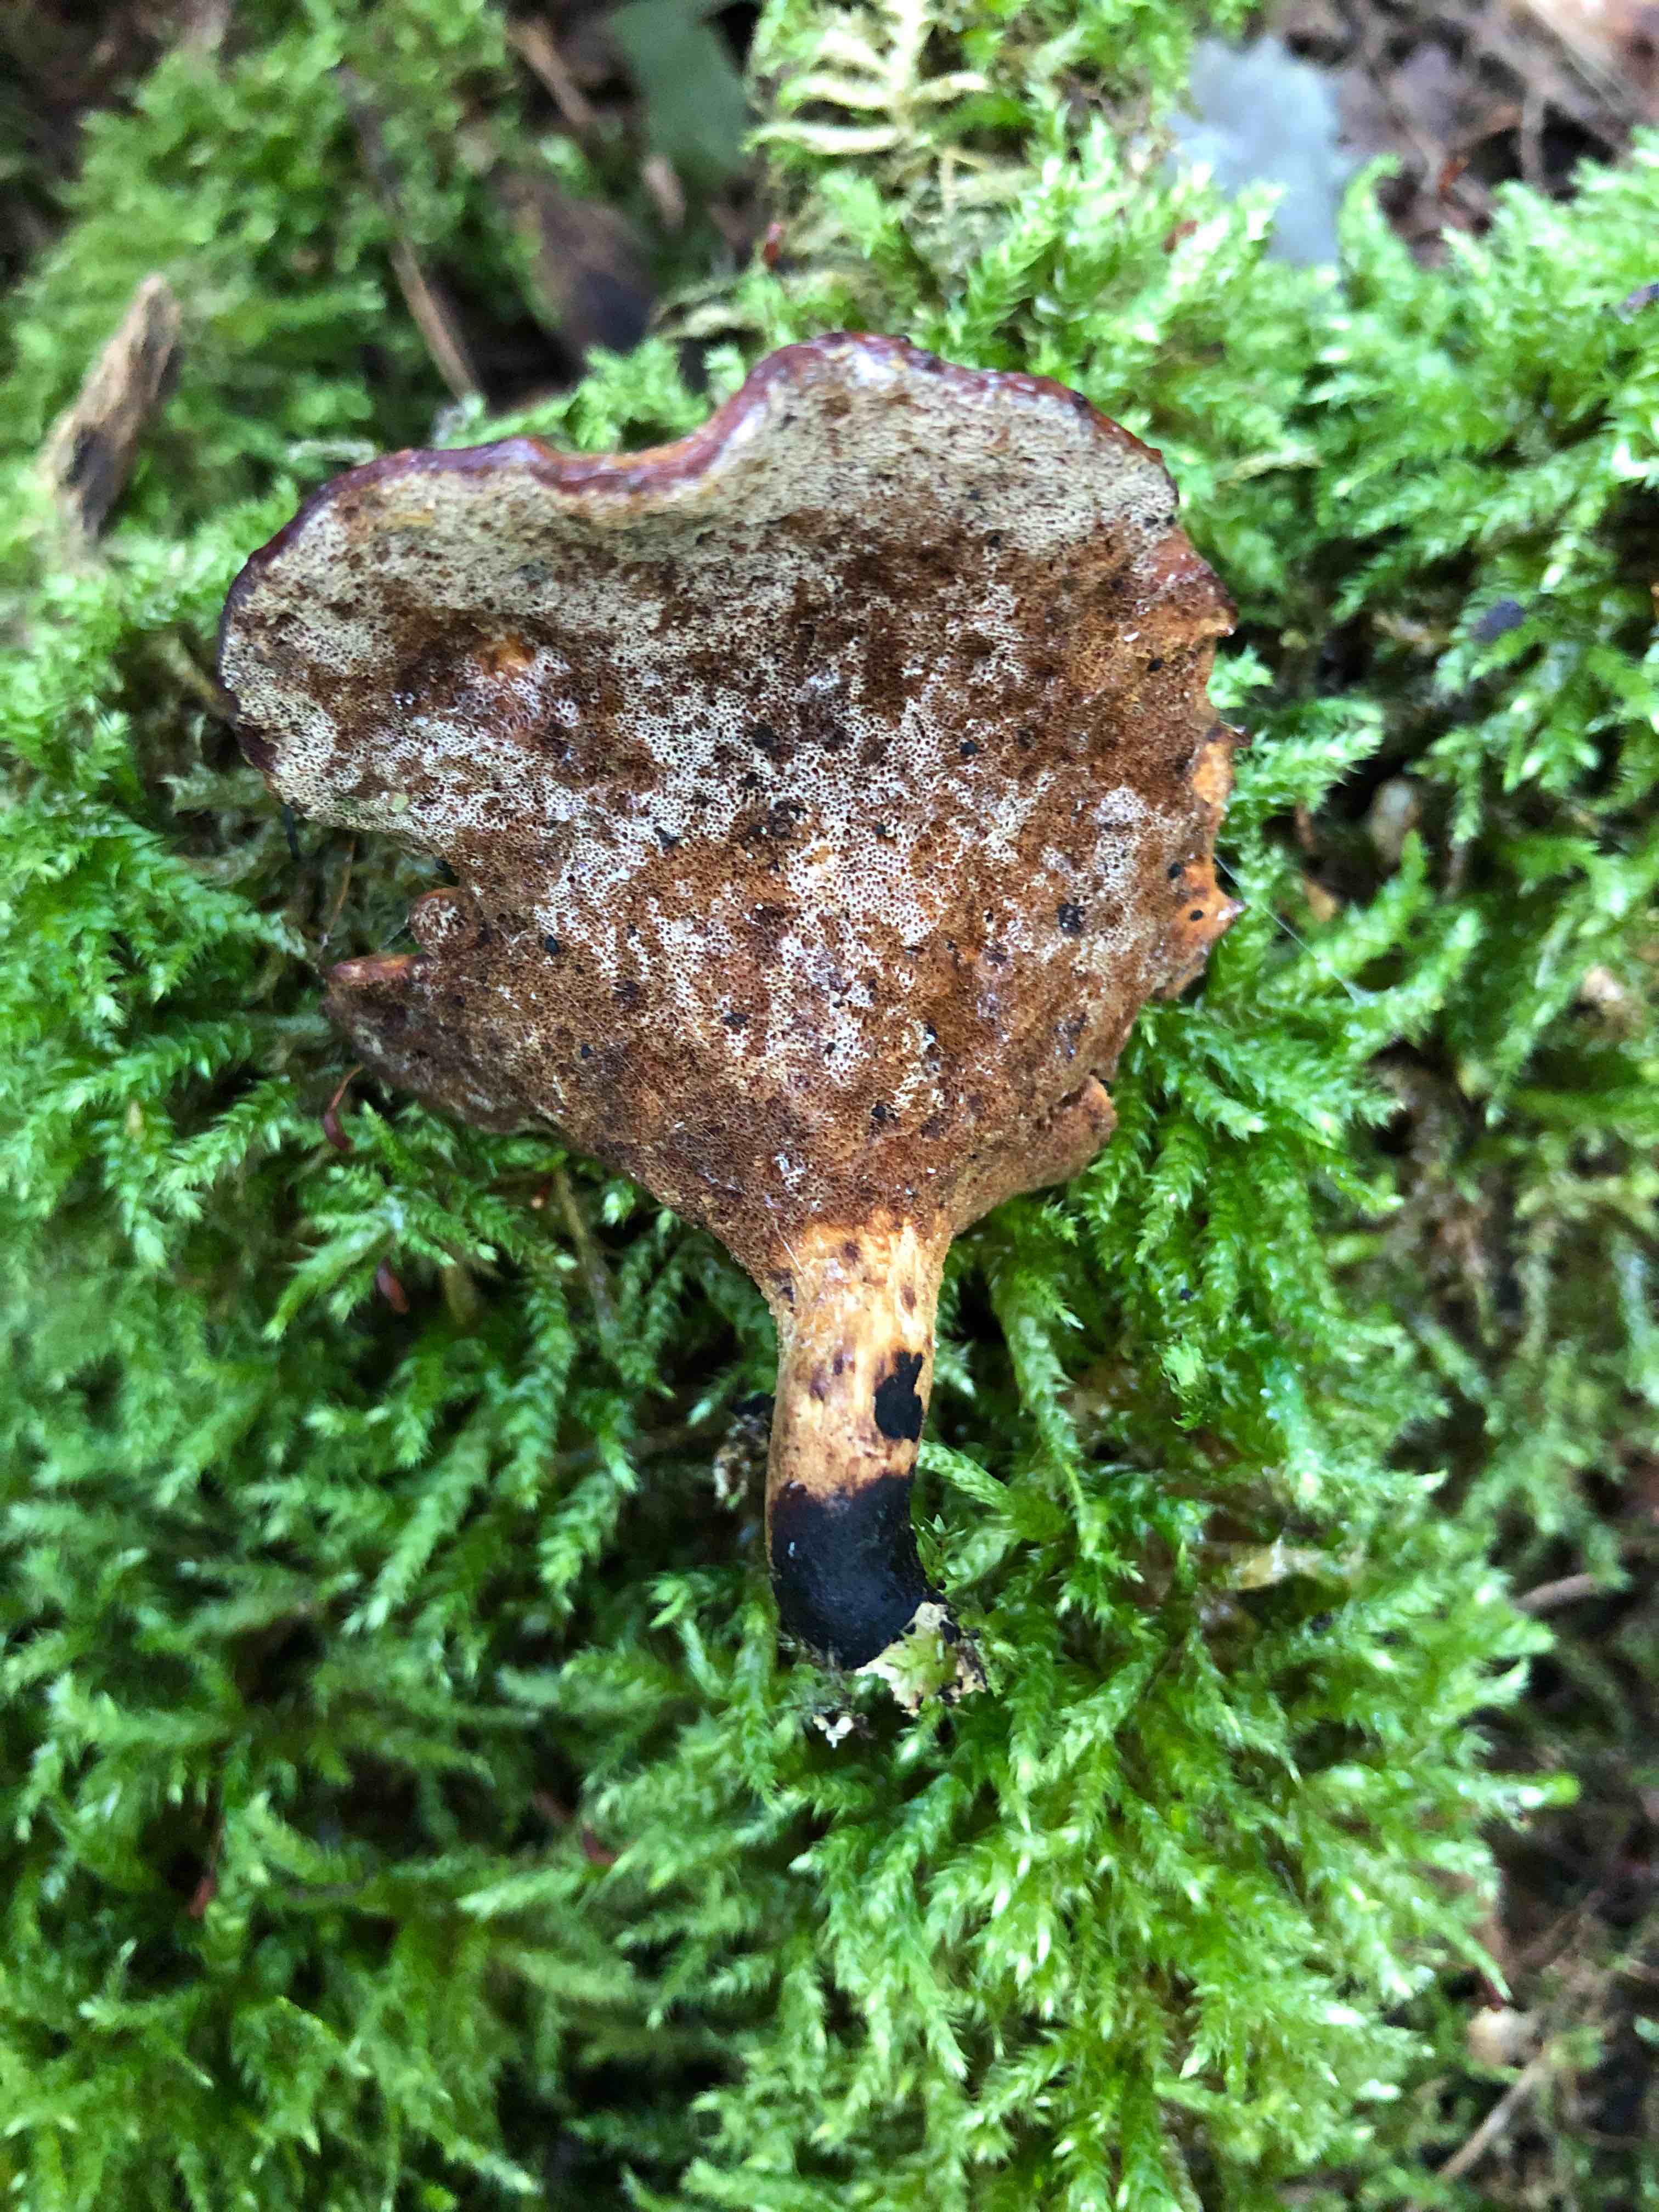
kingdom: Fungi
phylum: Basidiomycota
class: Agaricomycetes
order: Polyporales
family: Polyporaceae
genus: Cerioporus
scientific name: Cerioporus varius
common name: foranderlig stilkporesvamp
